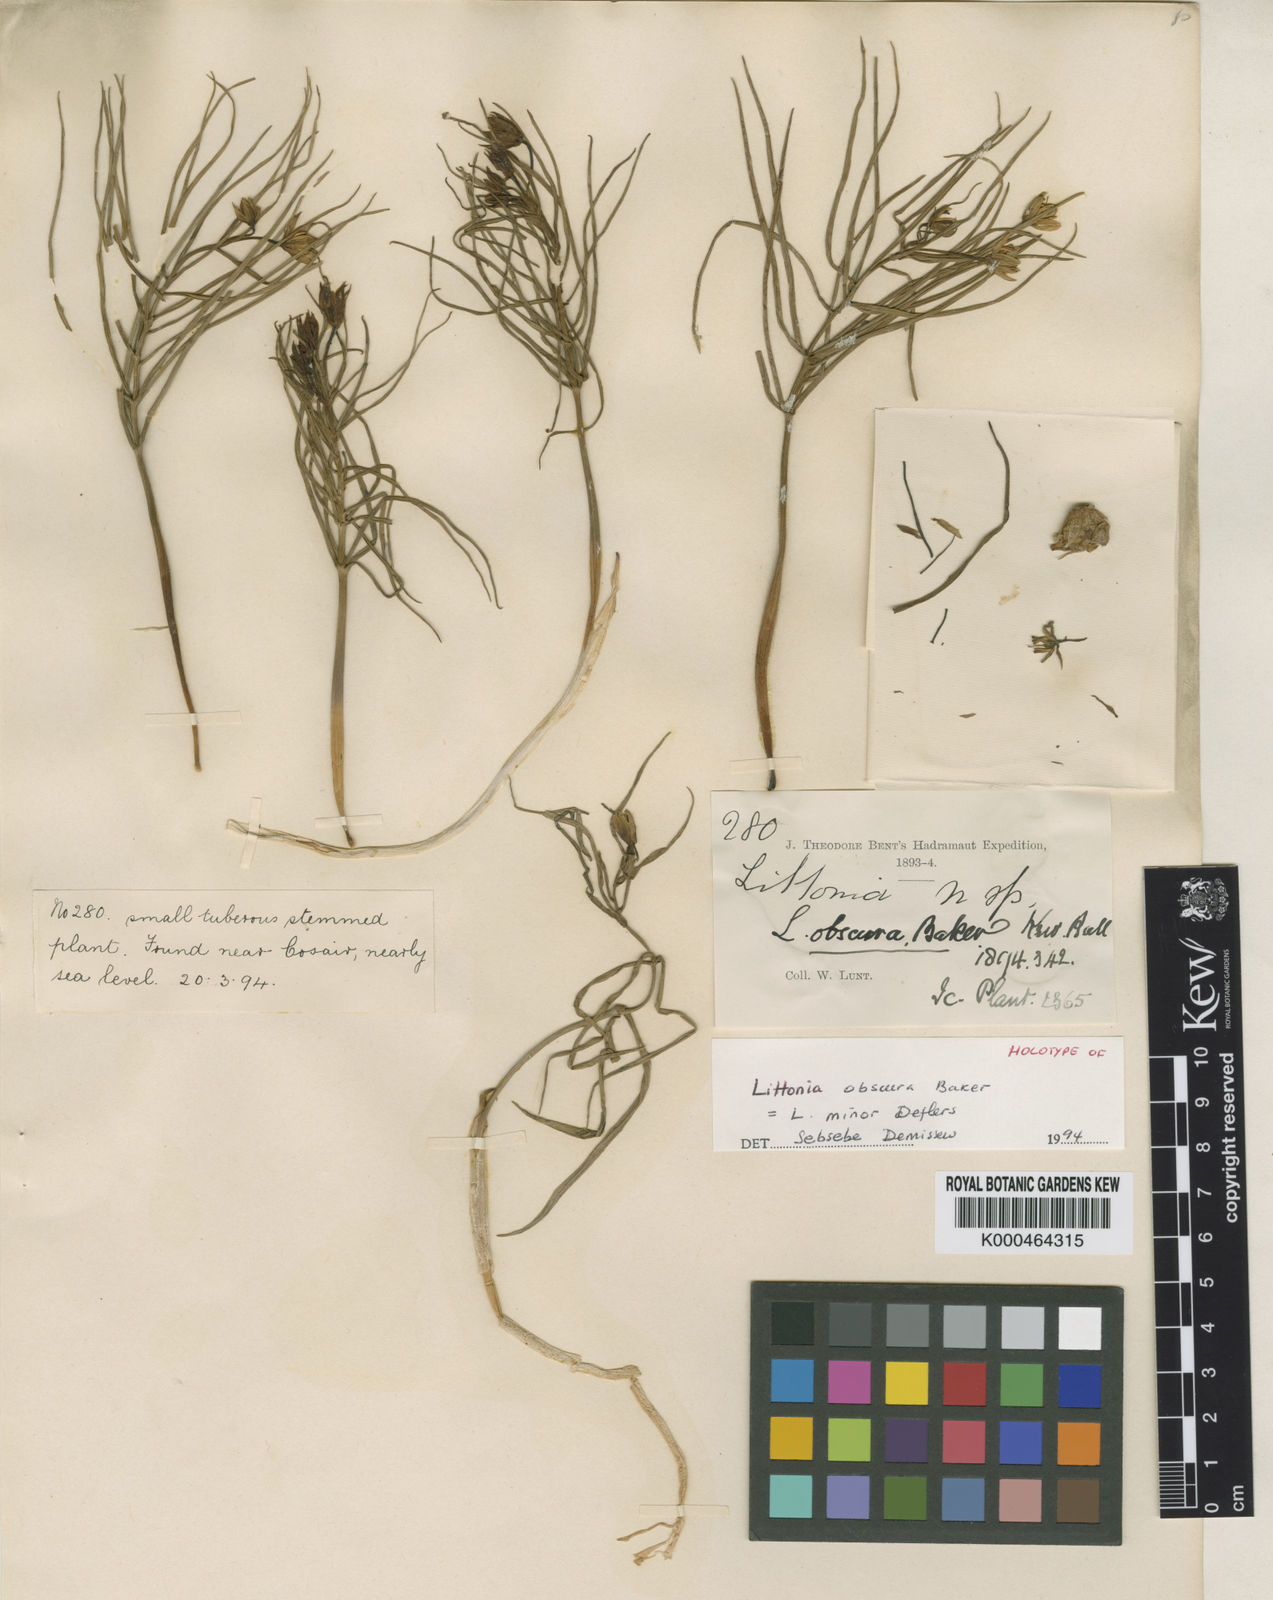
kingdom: Plantae
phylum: Tracheophyta
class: Liliopsida
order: Liliales
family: Colchicaceae
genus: Gloriosa
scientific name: Gloriosa revoilii
